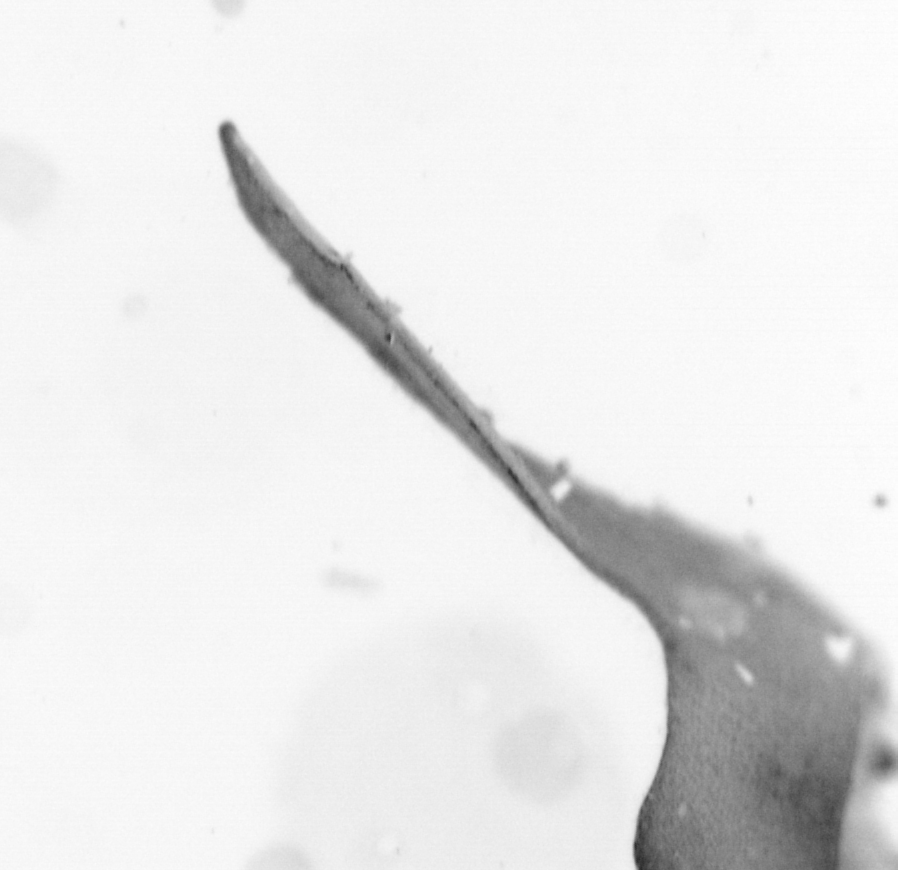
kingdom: Animalia
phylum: Chordata
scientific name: Chordata
